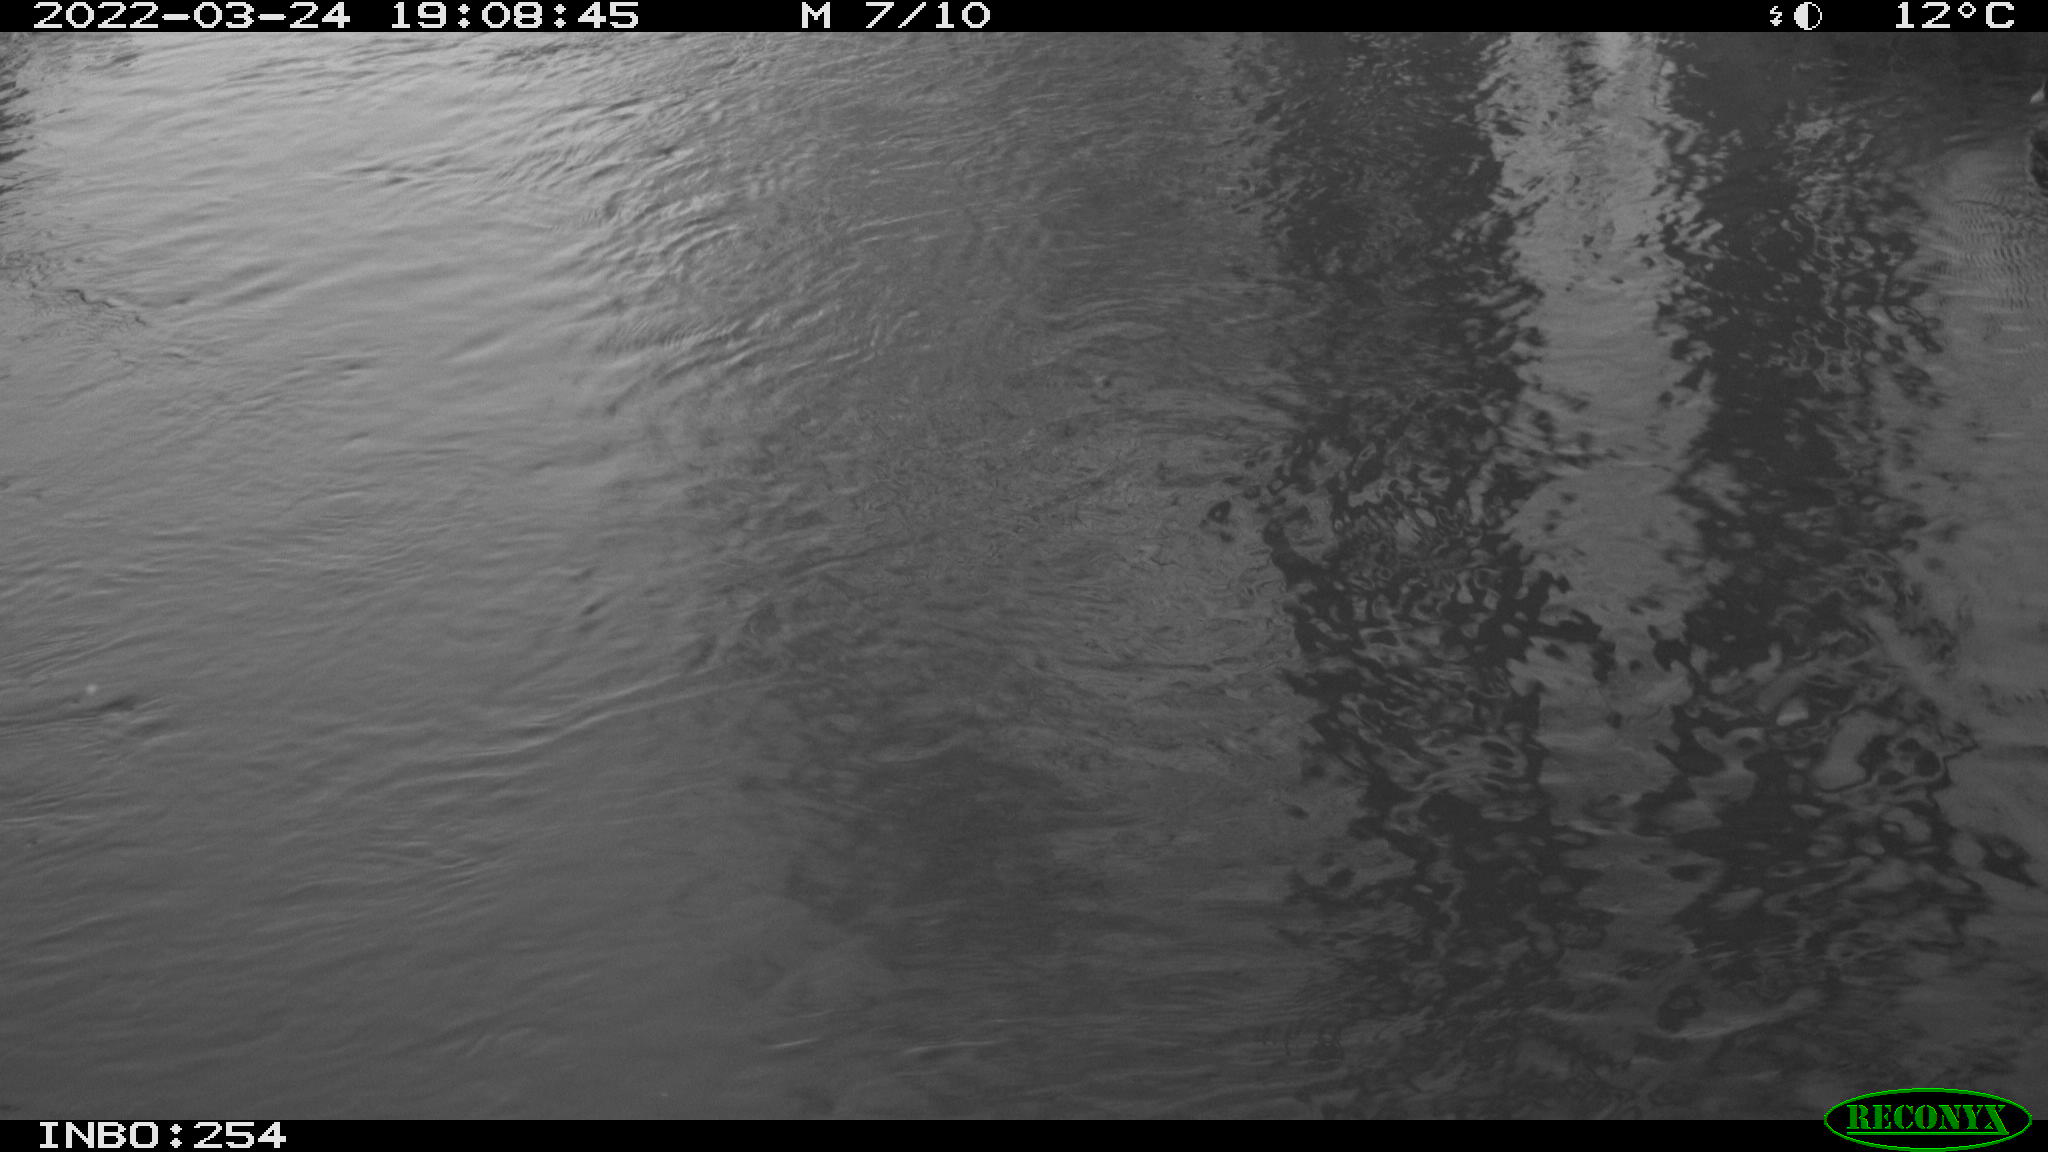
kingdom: Animalia
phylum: Chordata
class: Aves
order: Gruiformes
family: Rallidae
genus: Gallinula
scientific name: Gallinula chloropus
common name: Common moorhen
